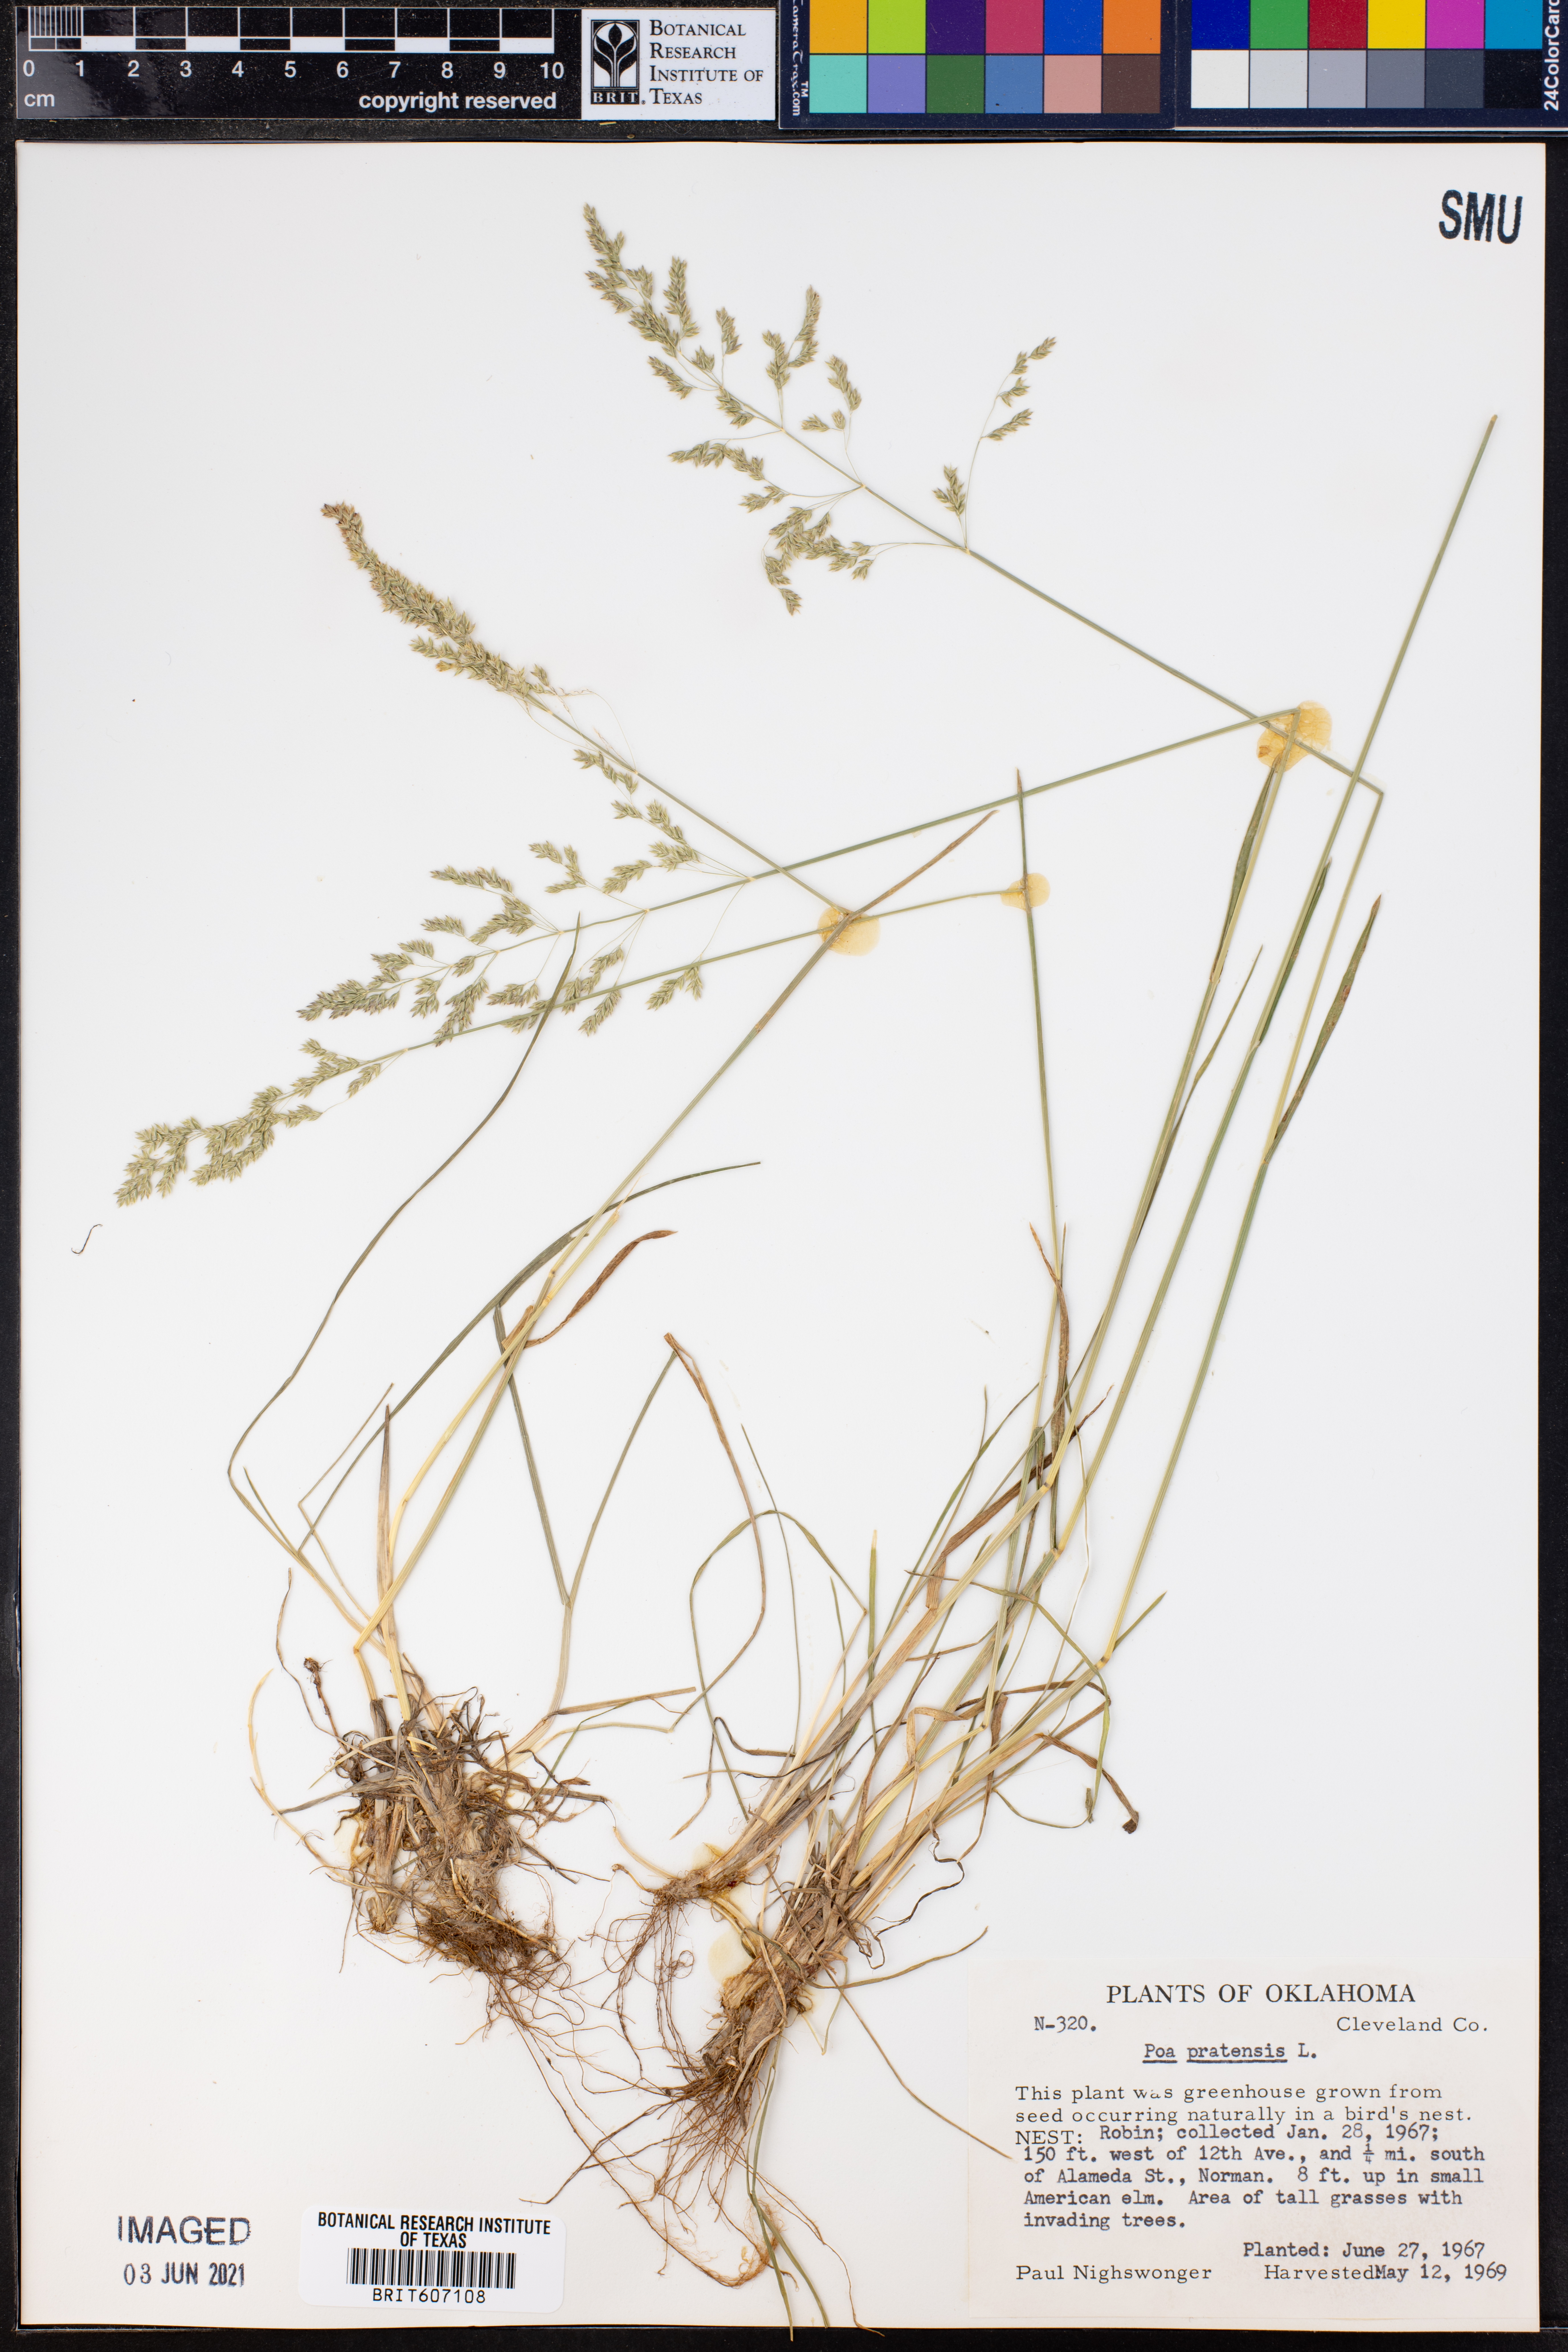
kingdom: Plantae
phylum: Tracheophyta
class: Liliopsida
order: Poales
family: Poaceae
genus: Poa
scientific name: Poa pratensis
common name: Kentucky bluegrass
